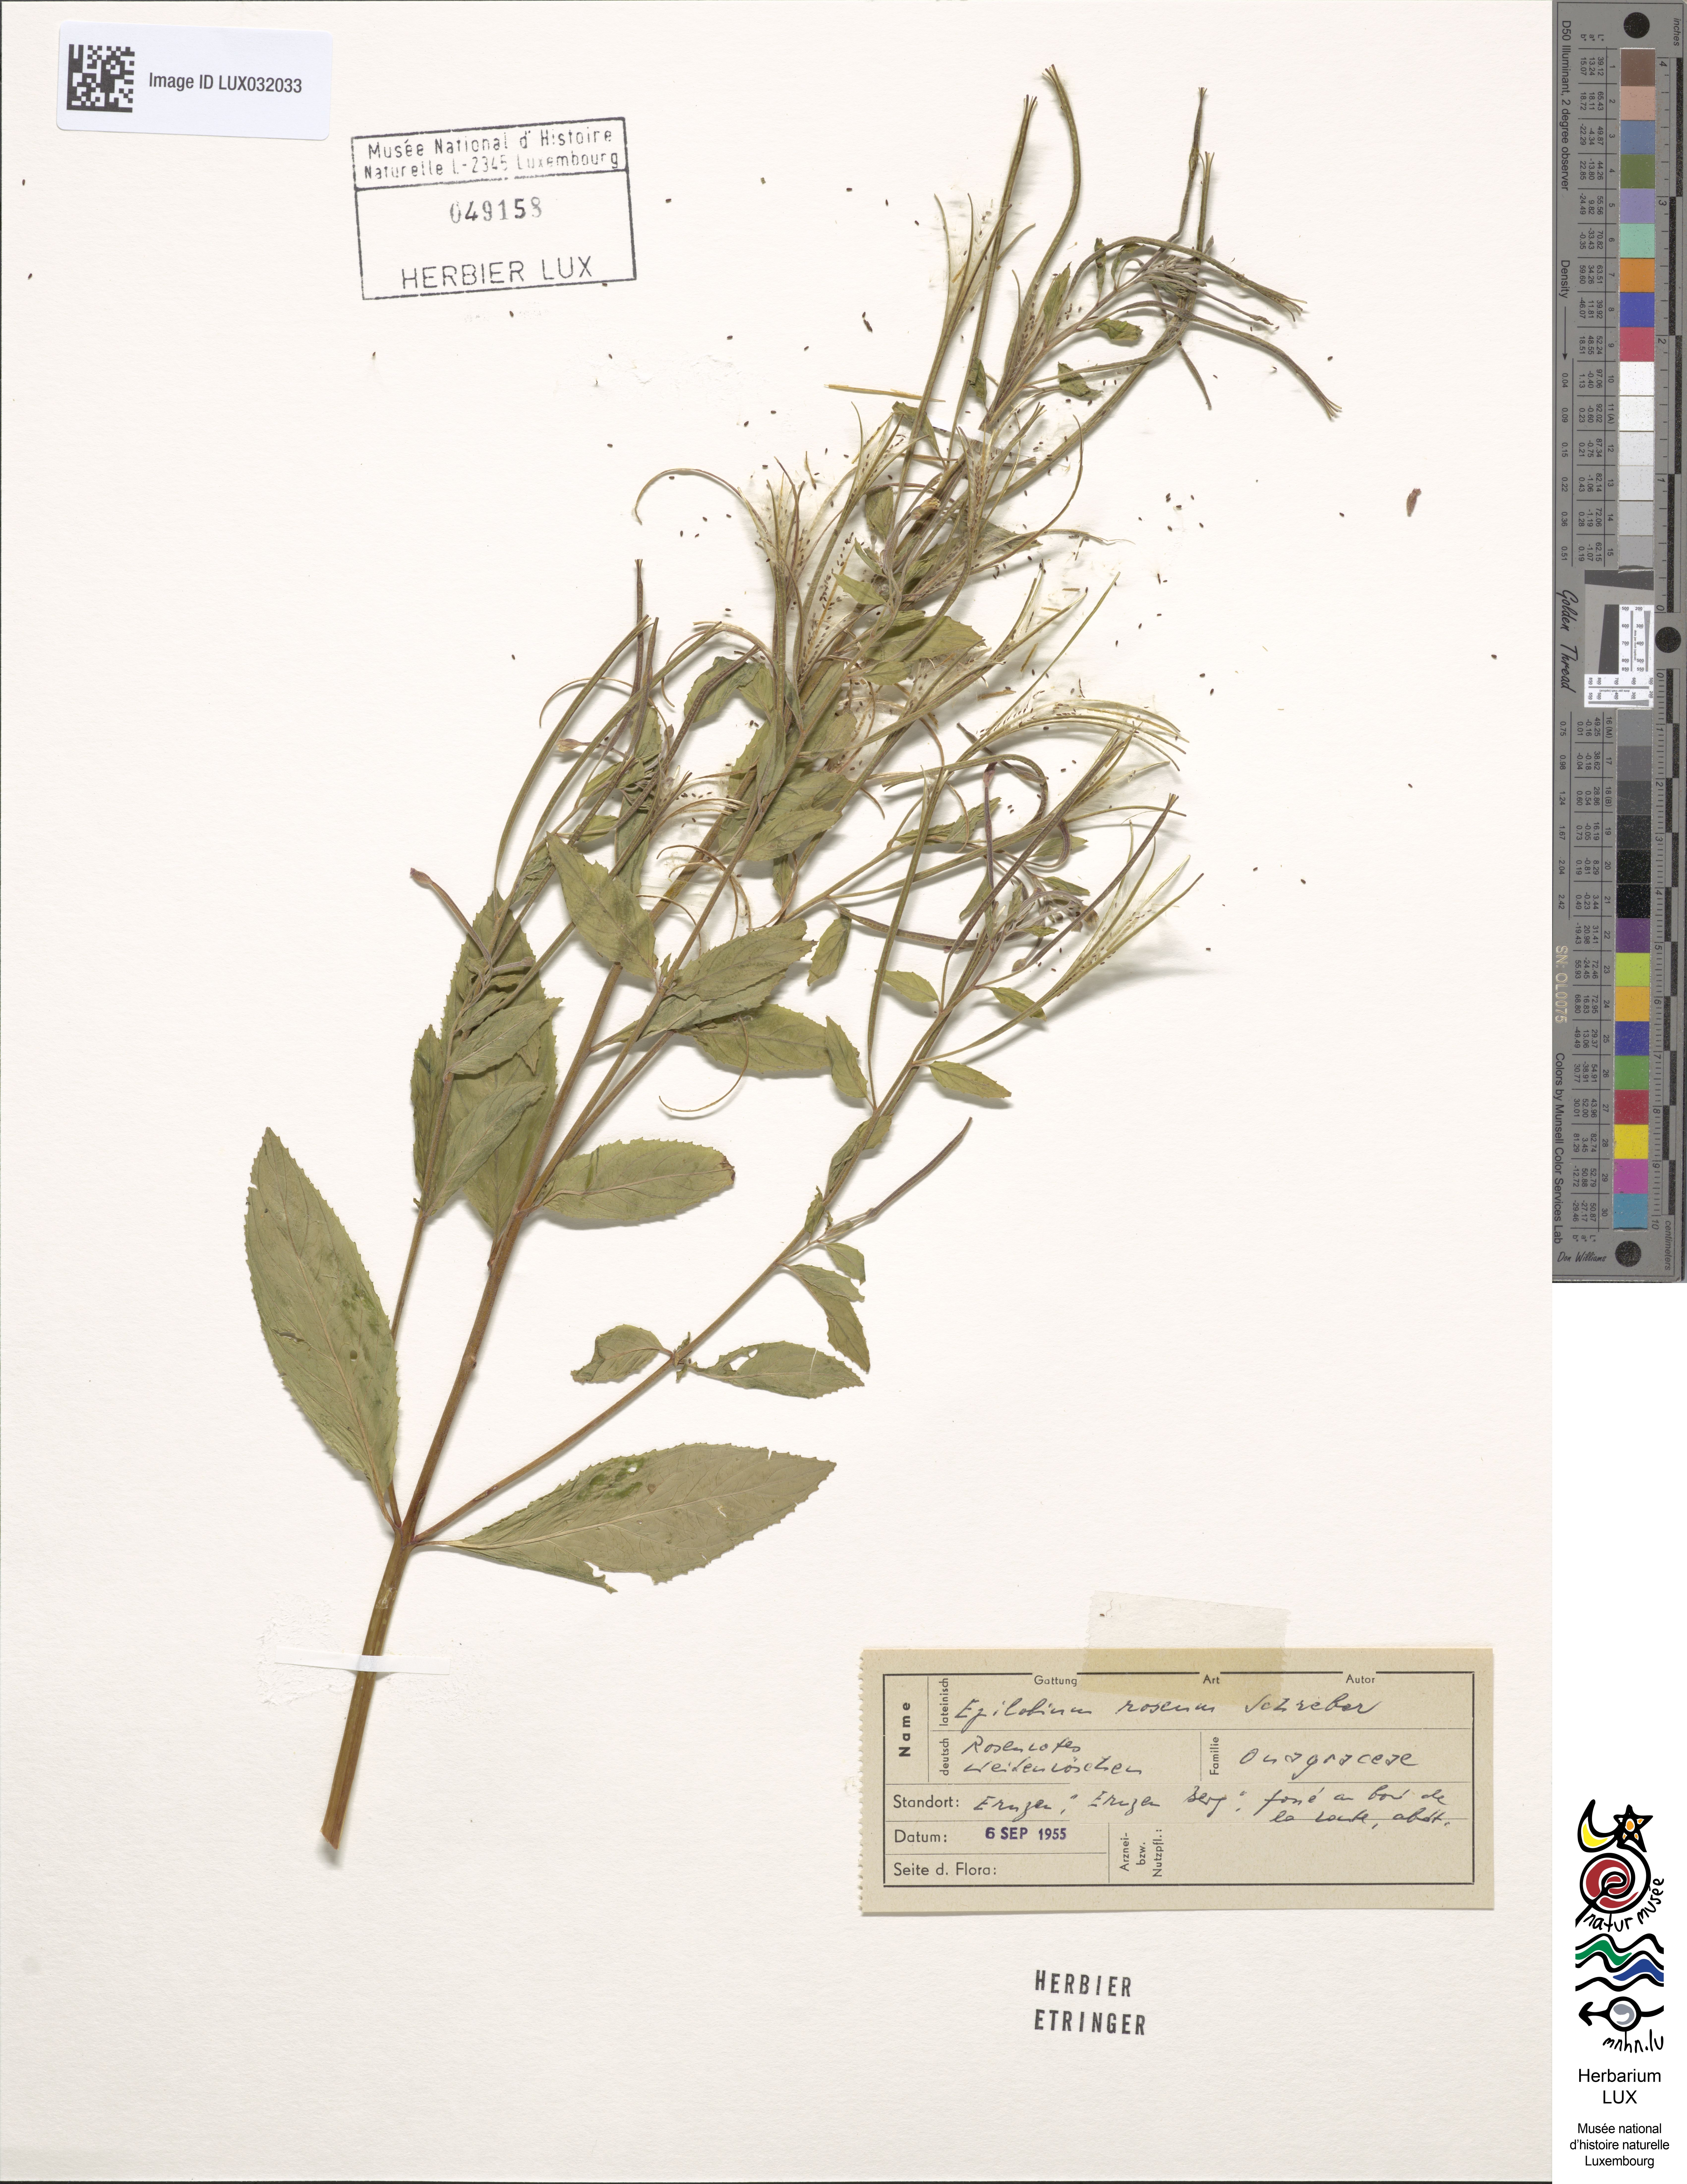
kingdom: Plantae
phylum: Tracheophyta
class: Magnoliopsida
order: Myrtales
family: Onagraceae
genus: Epilobium
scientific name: Epilobium roseum
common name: Pale willowherb
